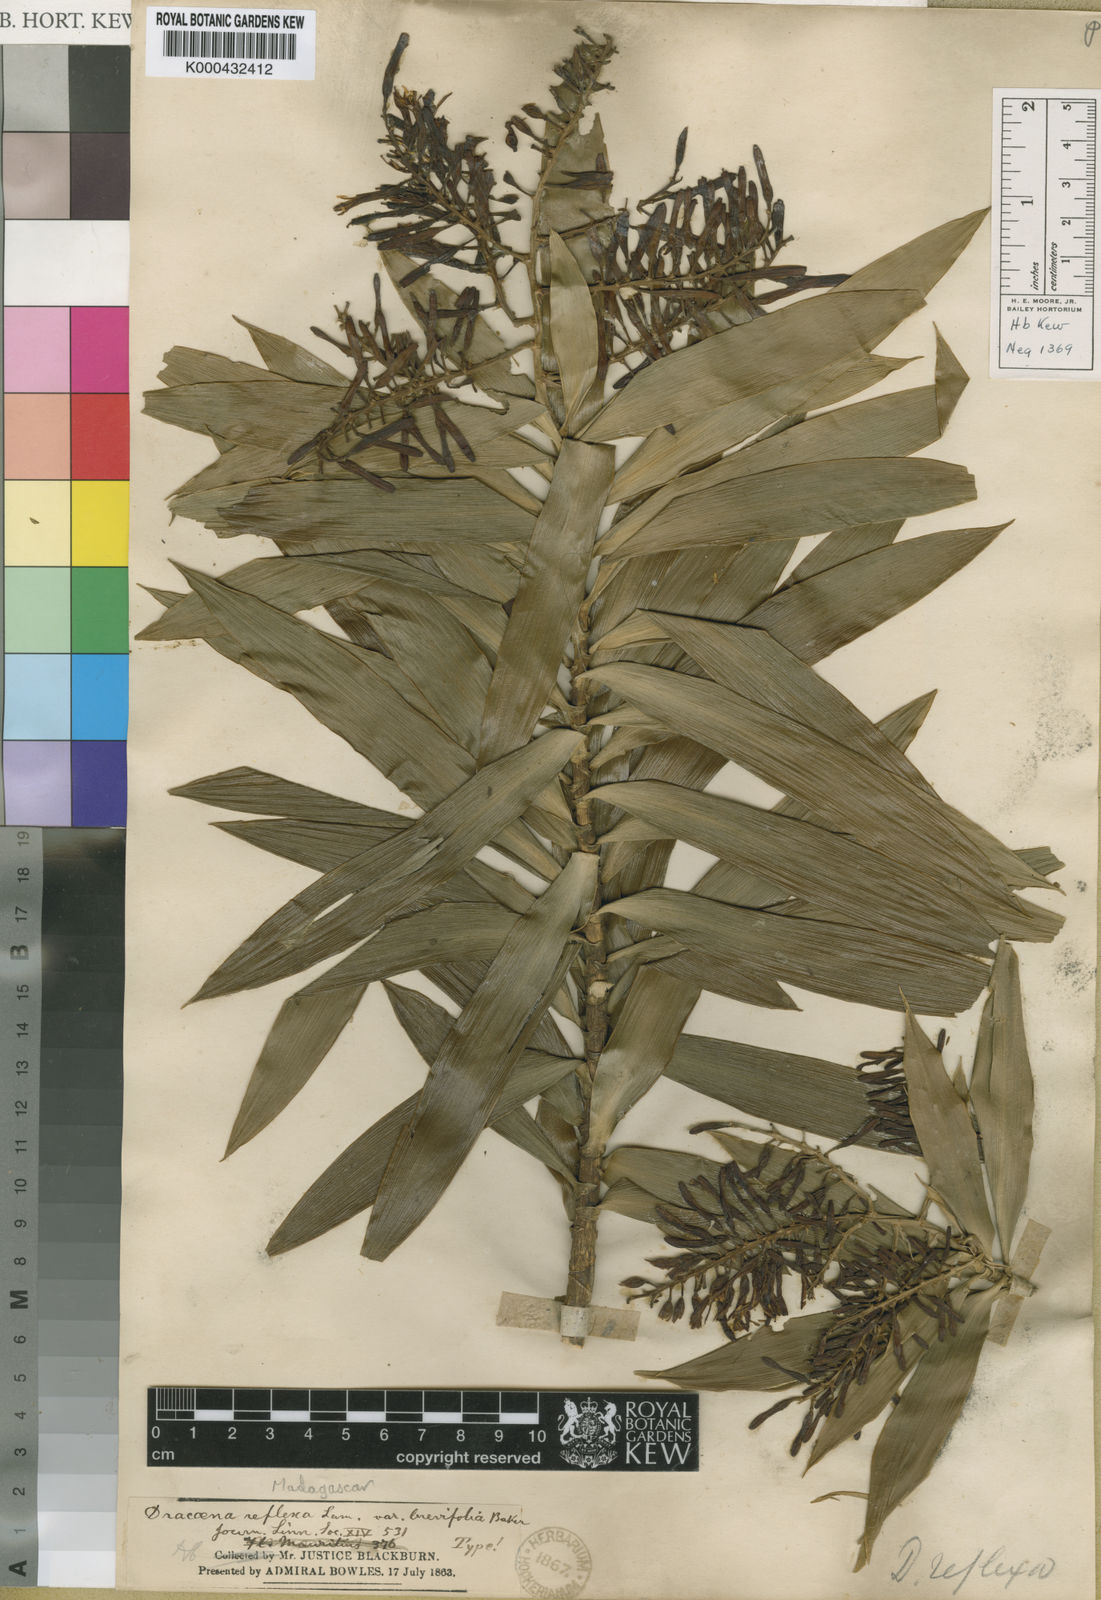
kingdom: Plantae
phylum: Tracheophyta
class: Liliopsida
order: Asparagales
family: Asparagaceae
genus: Dracaena
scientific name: Dracaena reflexa
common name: Song-of-india
